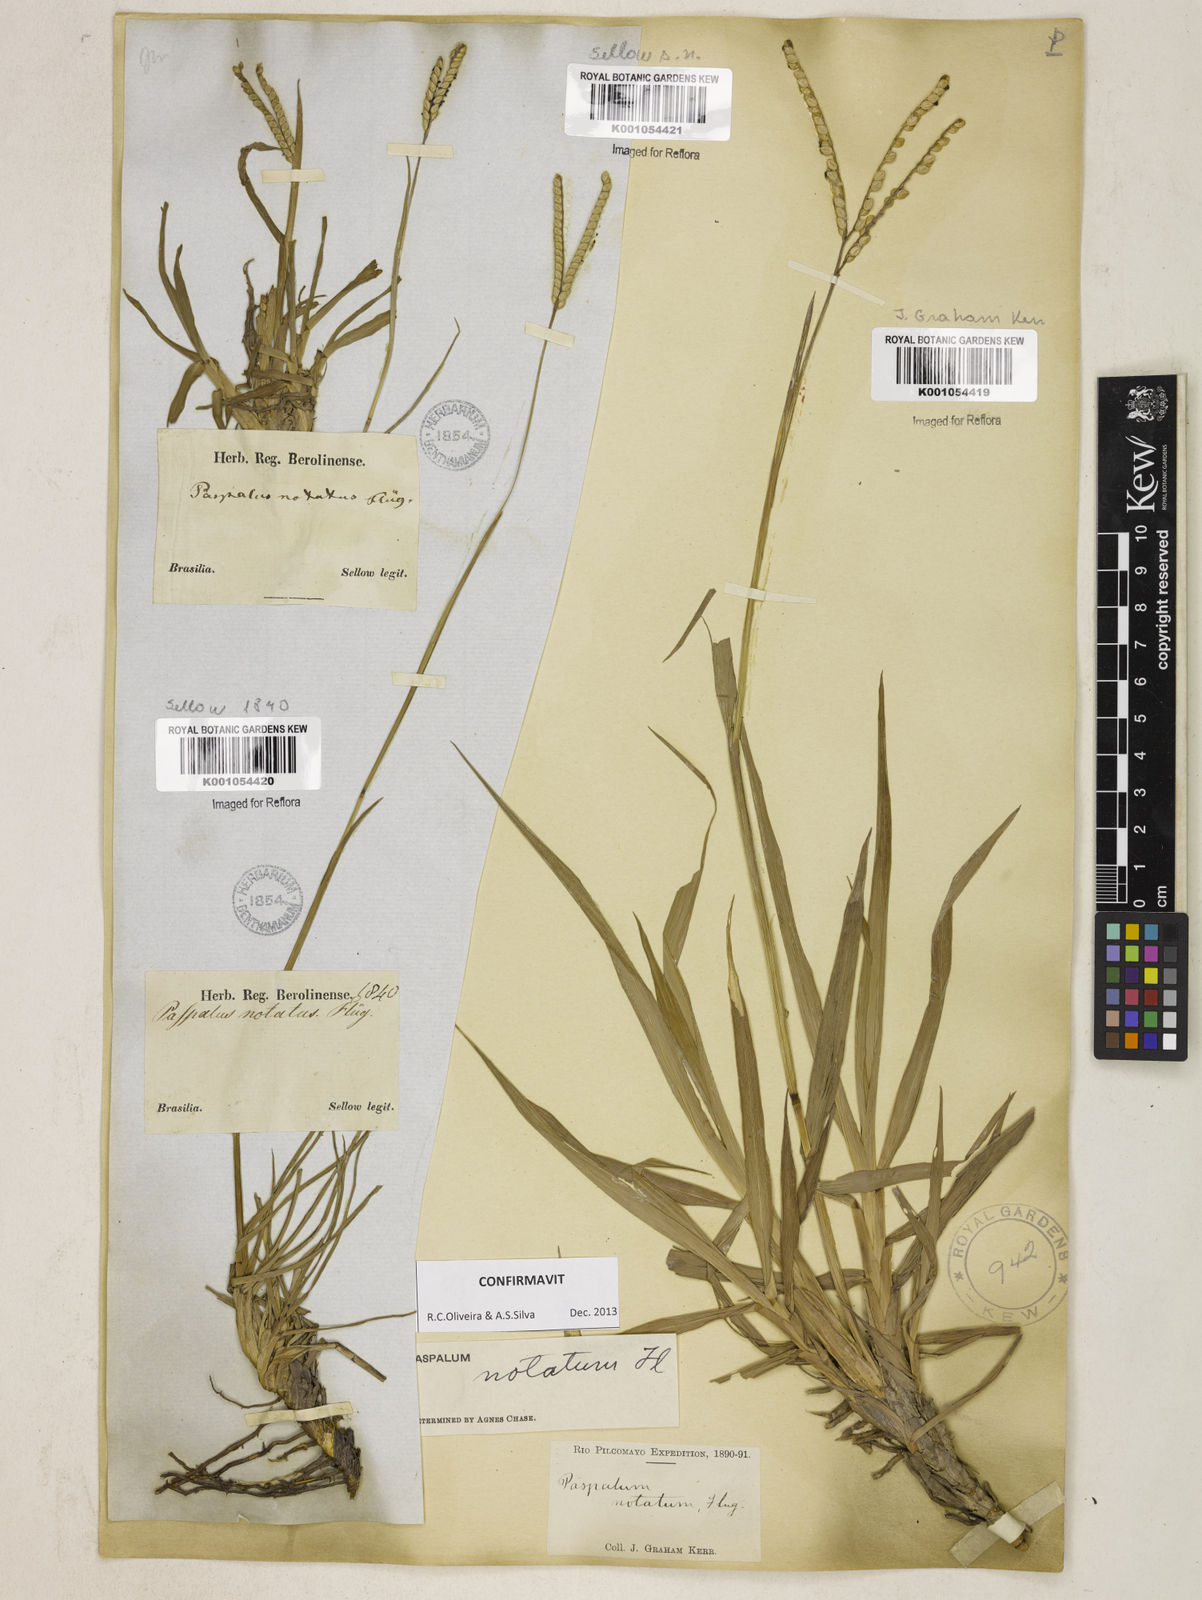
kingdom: Plantae
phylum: Tracheophyta
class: Liliopsida
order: Poales
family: Poaceae
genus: Paspalum
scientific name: Paspalum
